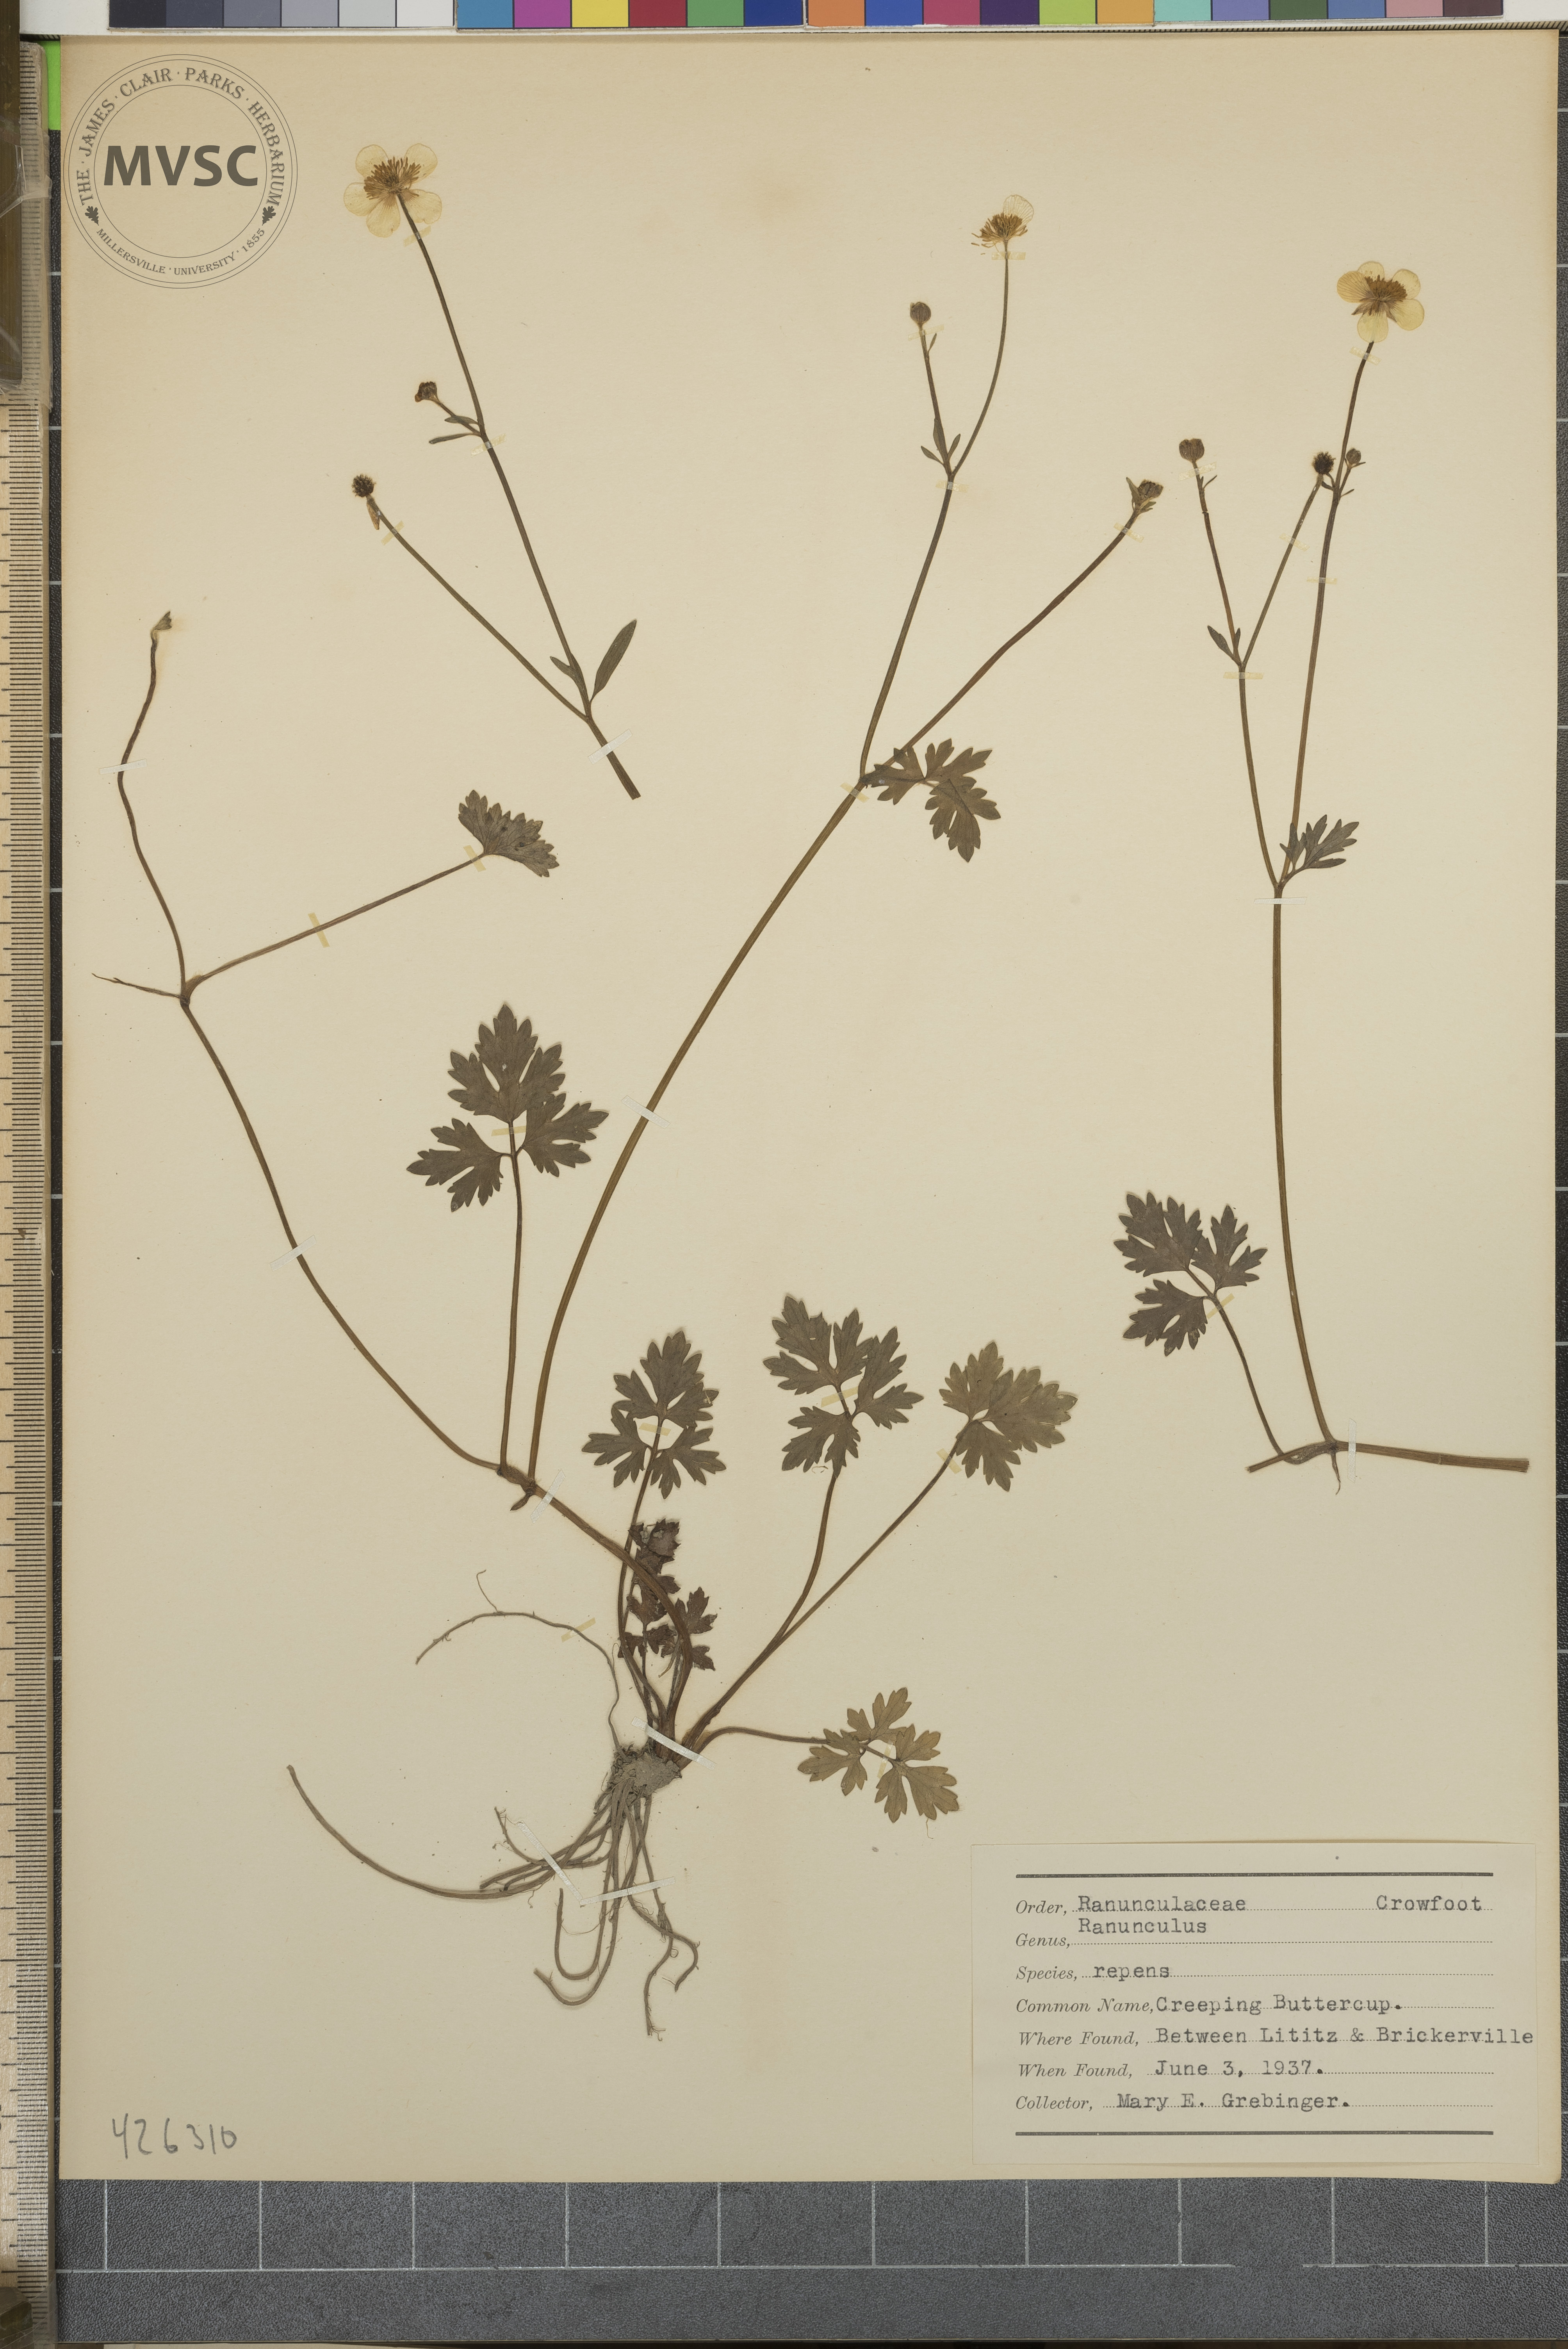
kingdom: Plantae
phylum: Tracheophyta
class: Magnoliopsida
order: Ranunculales
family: Ranunculaceae
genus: Ranunculus
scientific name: Ranunculus repens
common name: Creeping Buttercup
